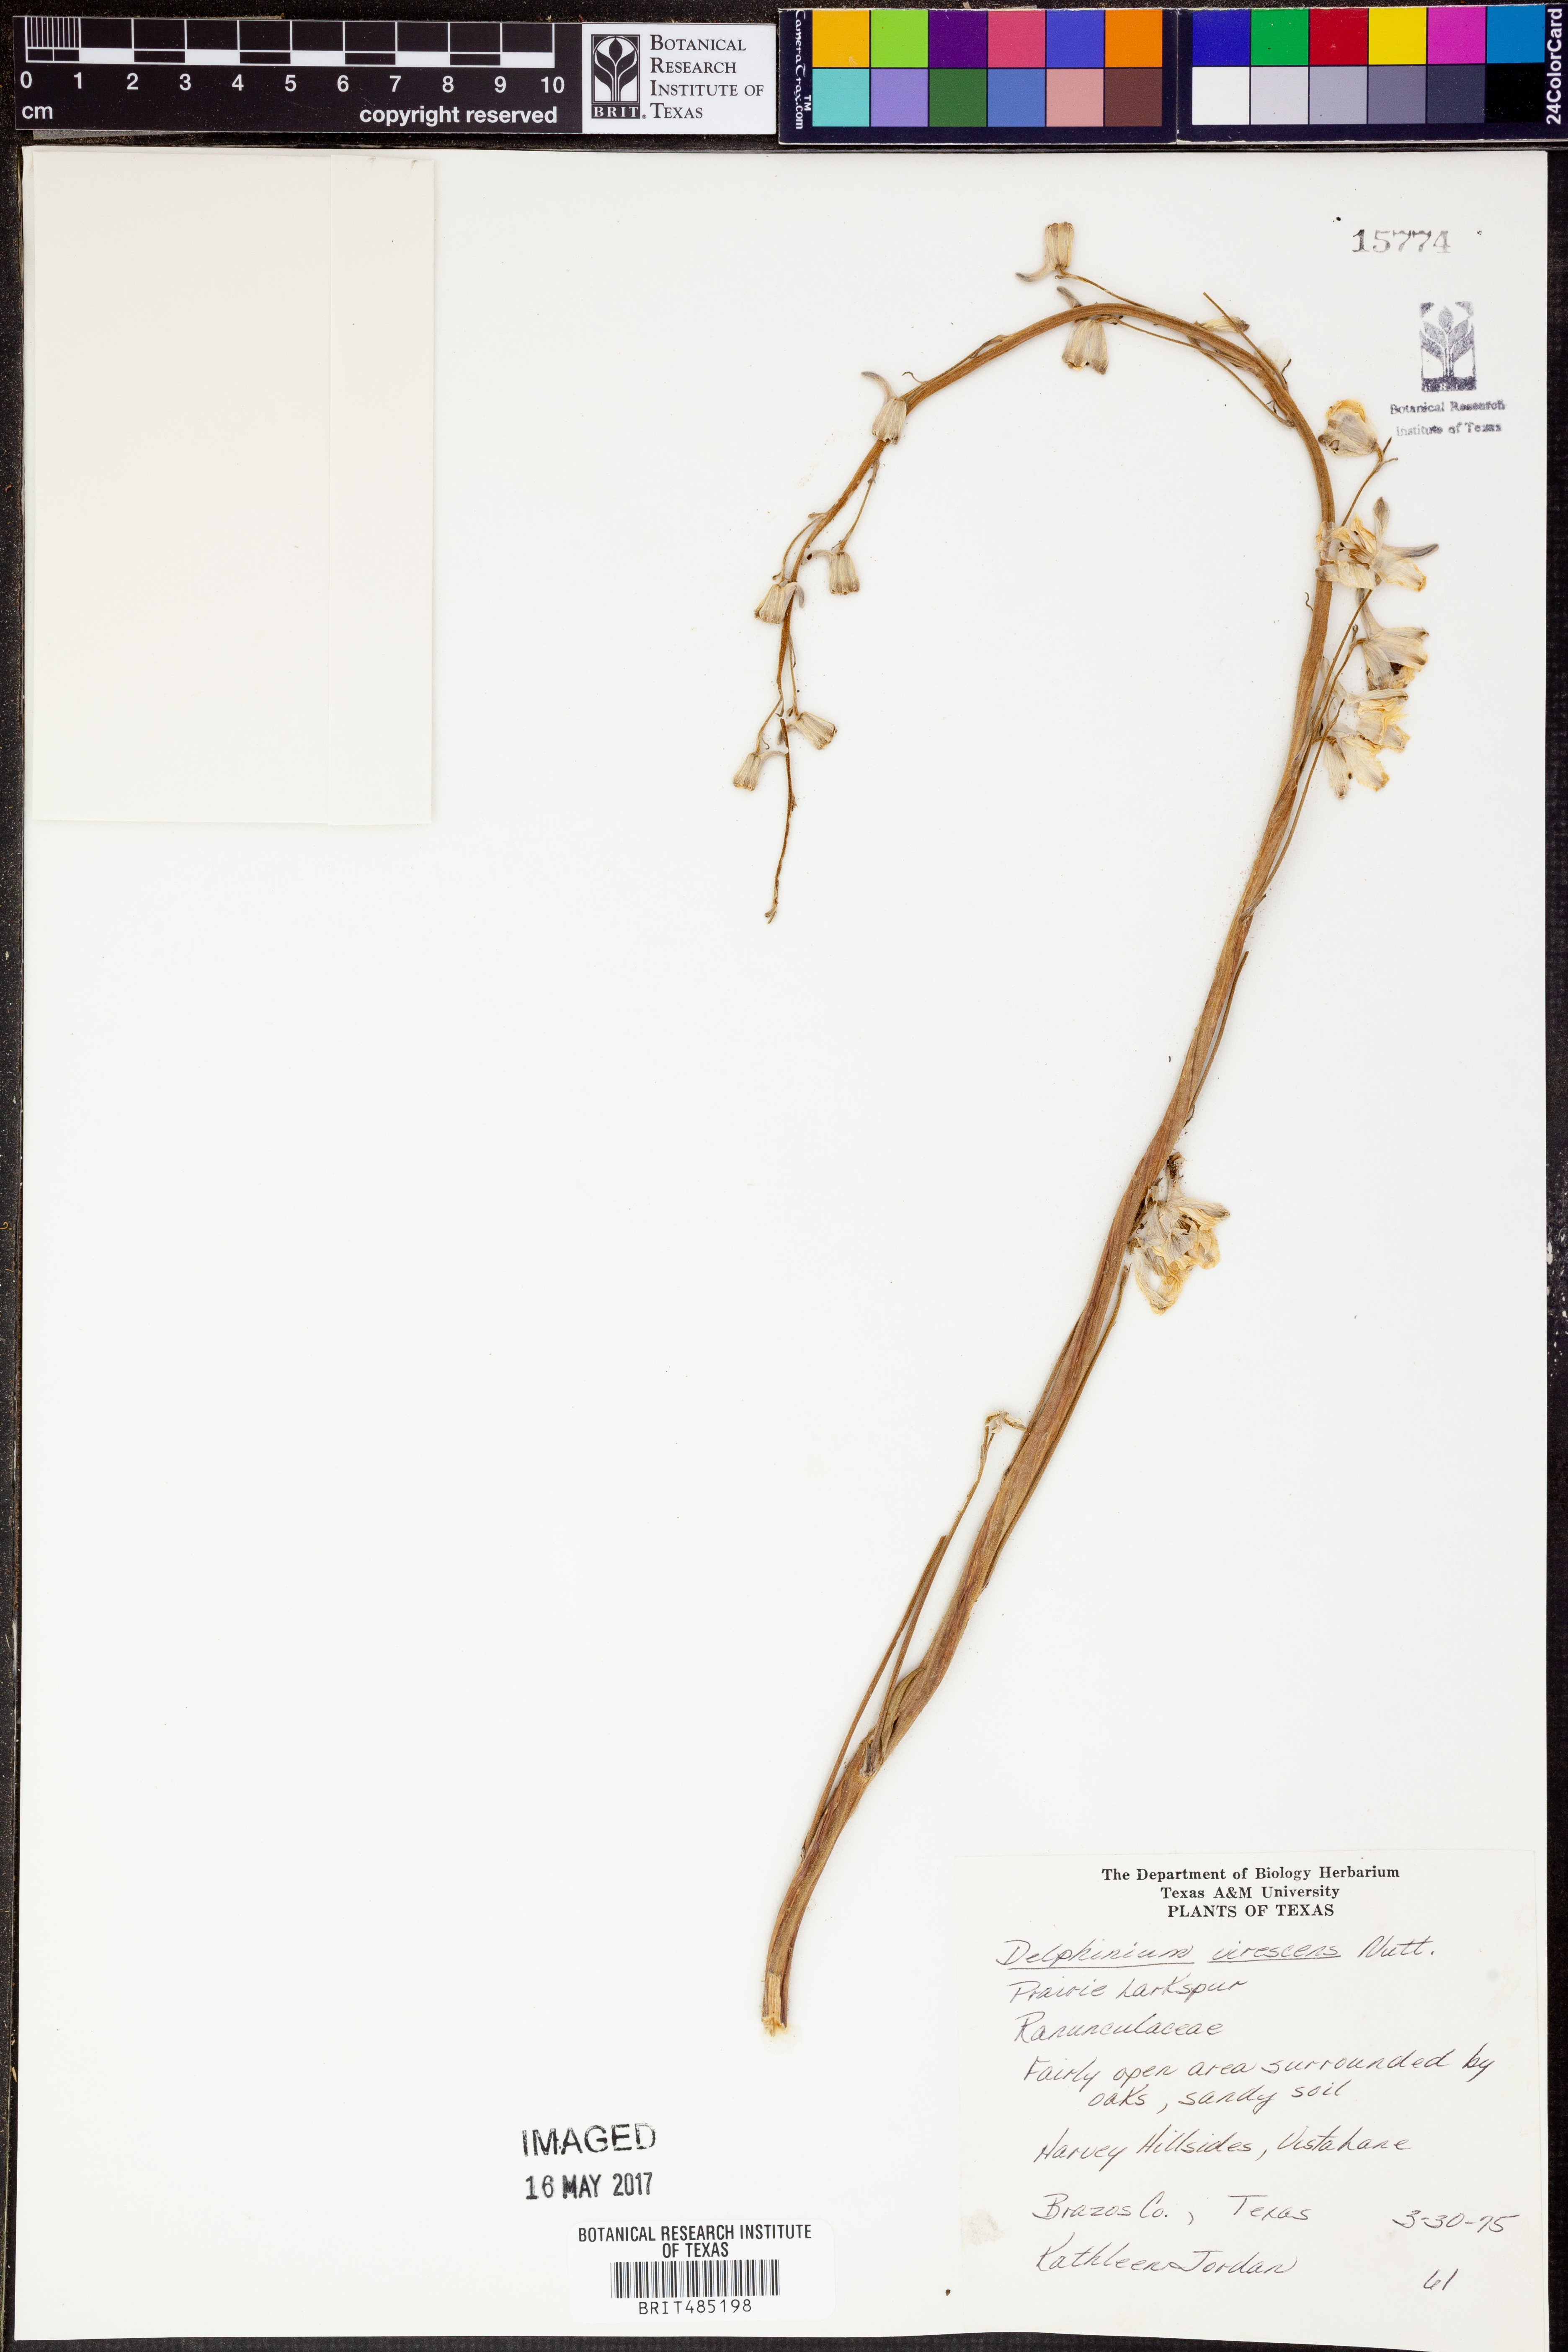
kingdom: Plantae
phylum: Tracheophyta
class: Magnoliopsida
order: Ranunculales
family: Ranunculaceae
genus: Delphinium
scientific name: Delphinium carolinianum
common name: Carolina larkspur
